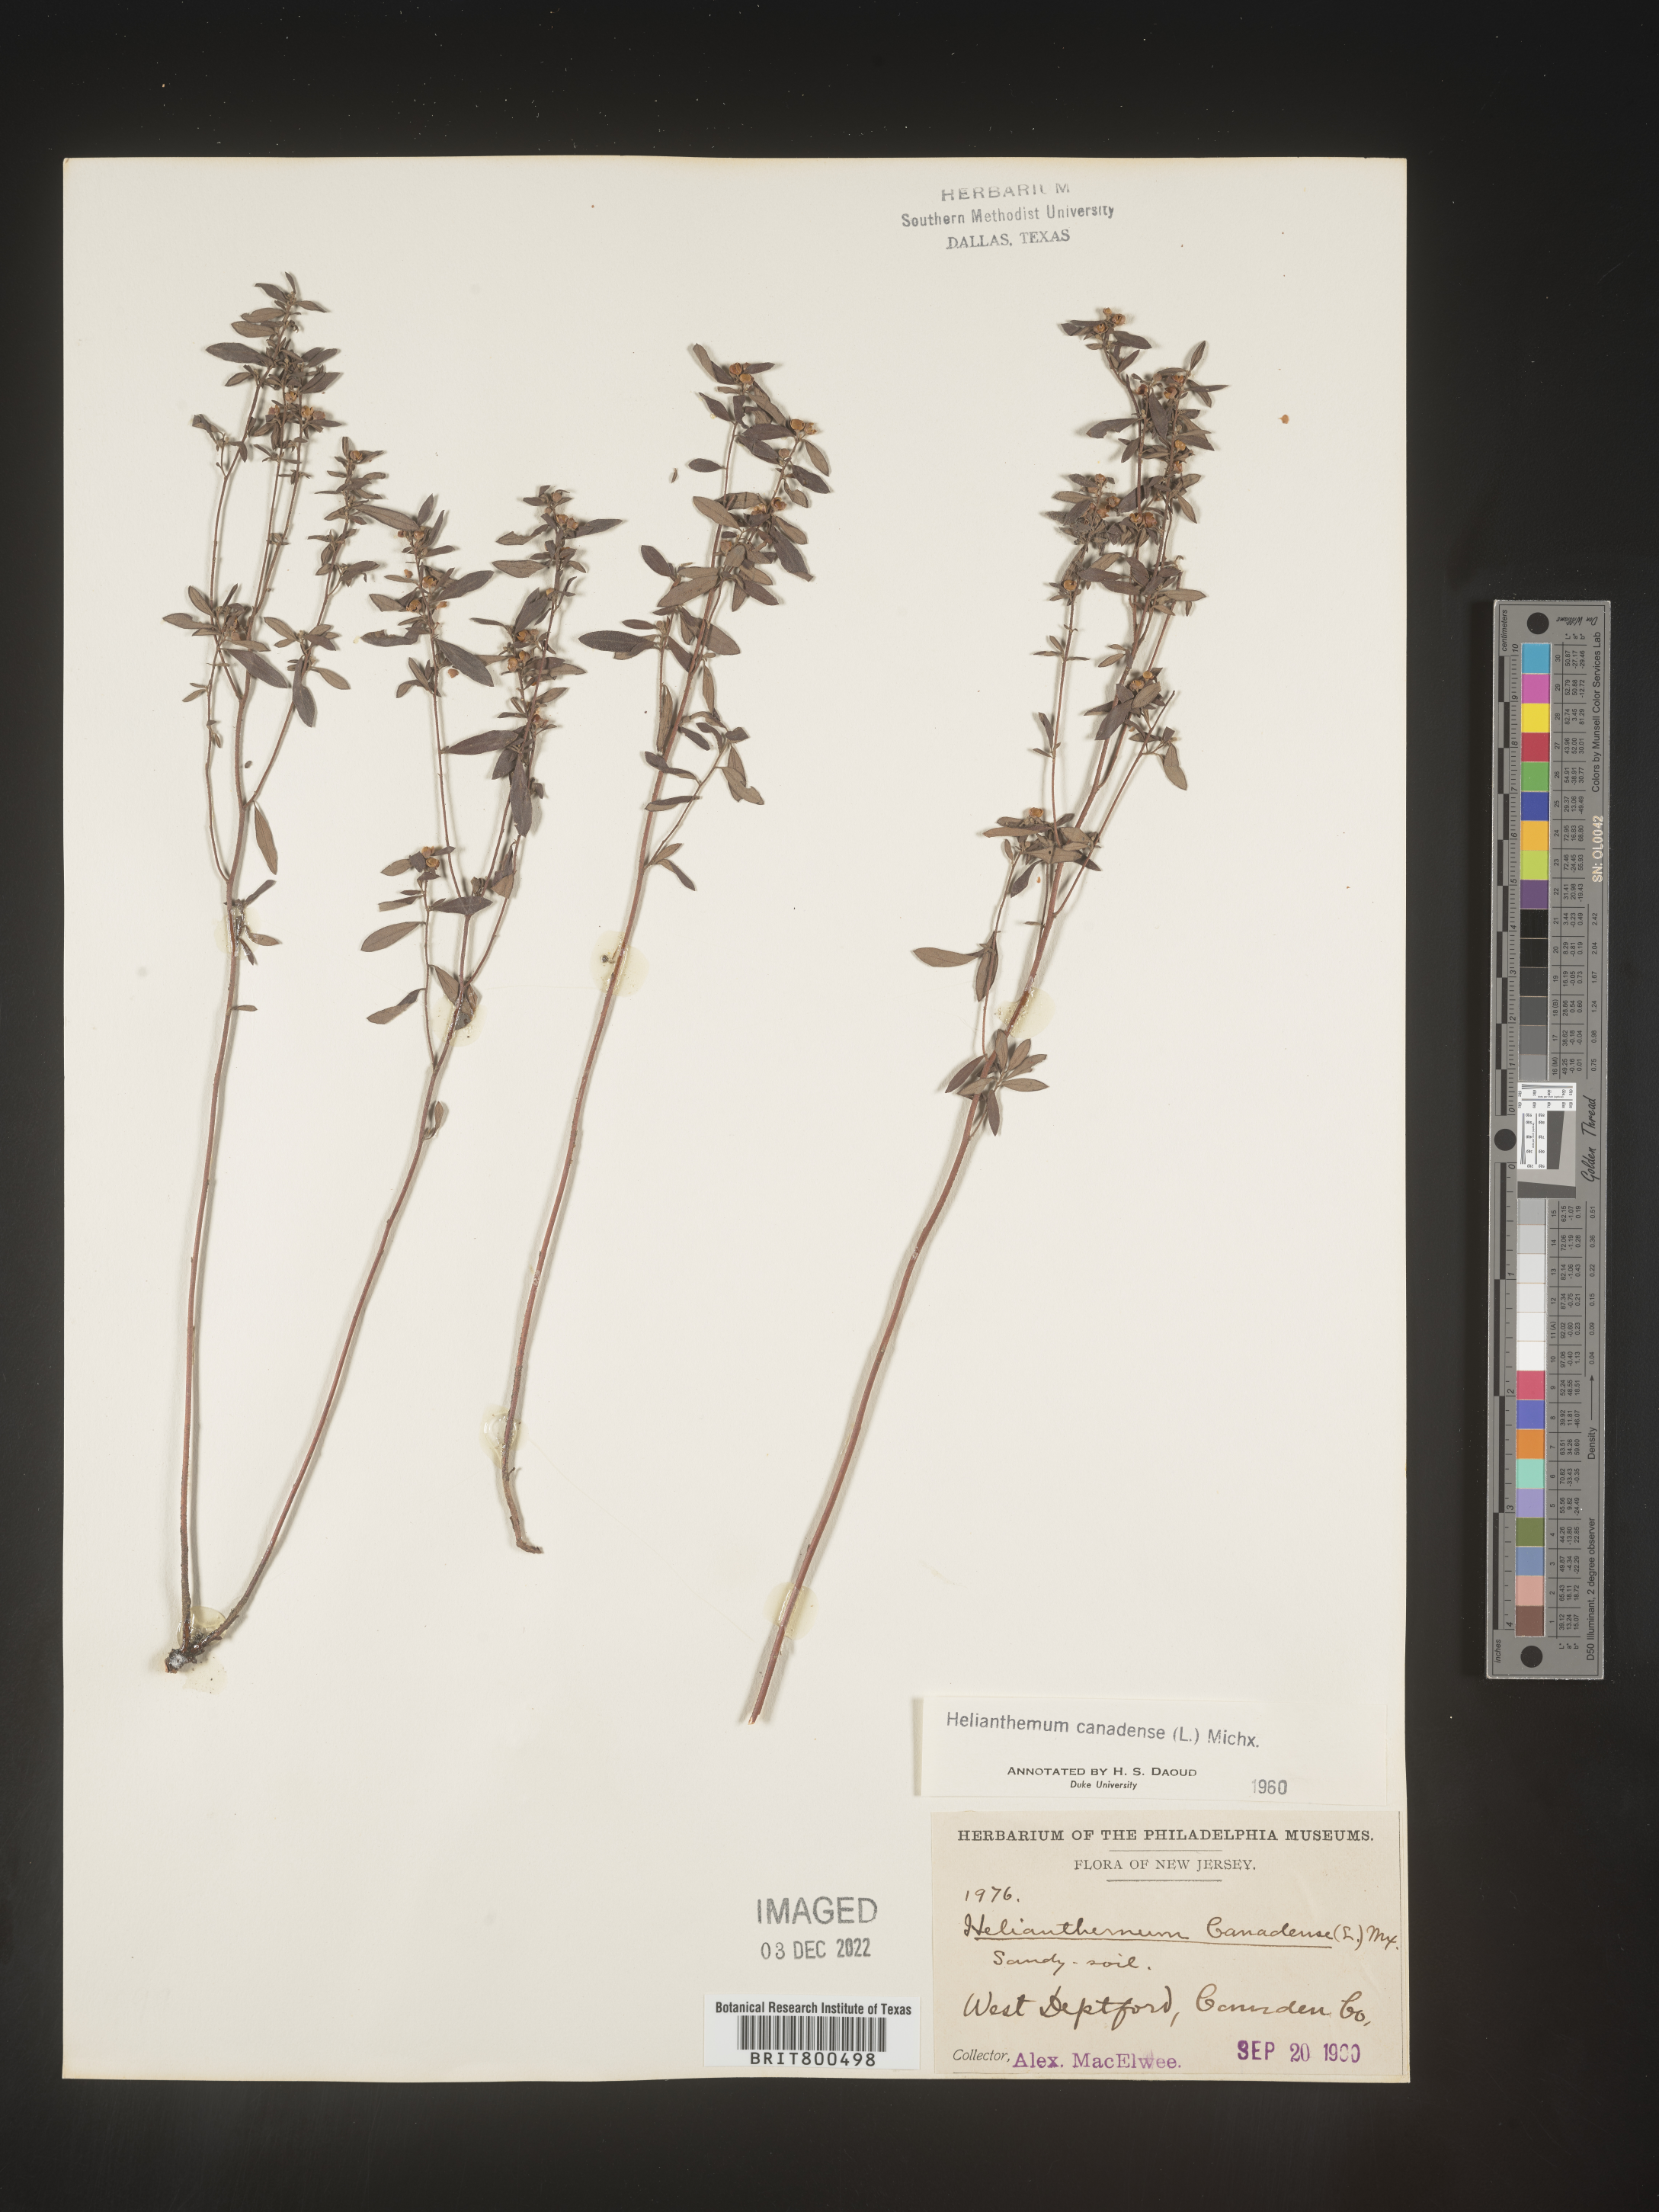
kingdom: Plantae
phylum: Tracheophyta
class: Magnoliopsida
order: Malvales
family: Cistaceae
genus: Crocanthemum
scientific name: Crocanthemum canadense
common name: Canada frostweed
